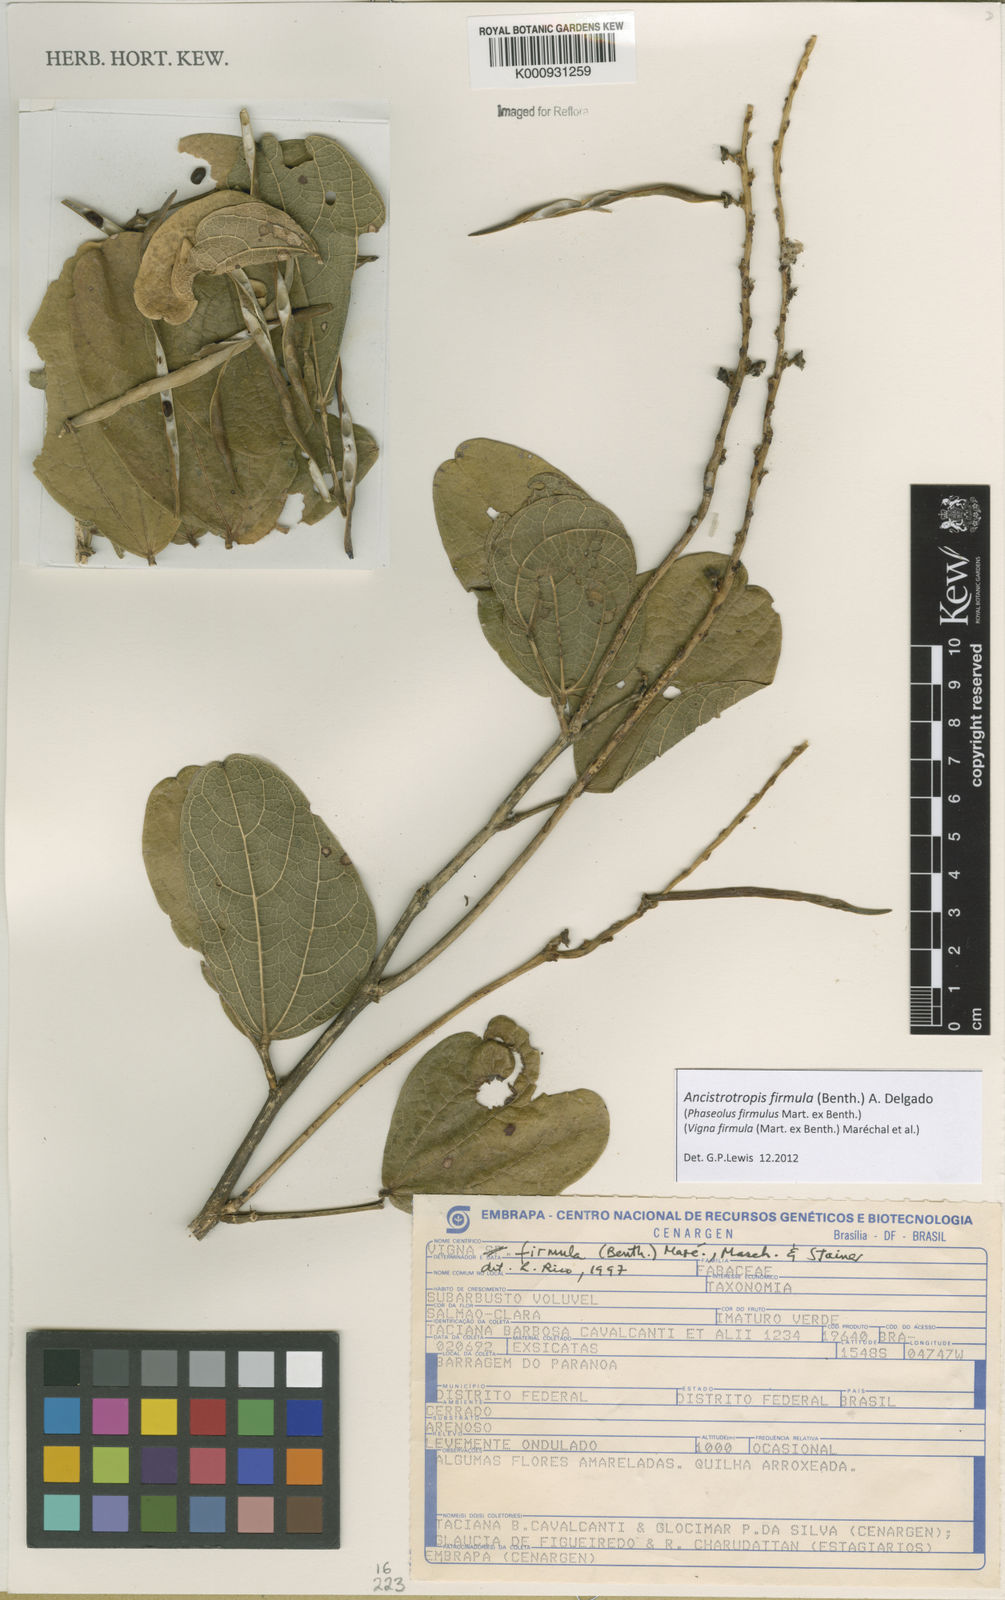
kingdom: Plantae
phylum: Tracheophyta
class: Magnoliopsida
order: Fabales
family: Fabaceae
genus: Ancistrotropis
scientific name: Ancistrotropis firmula
